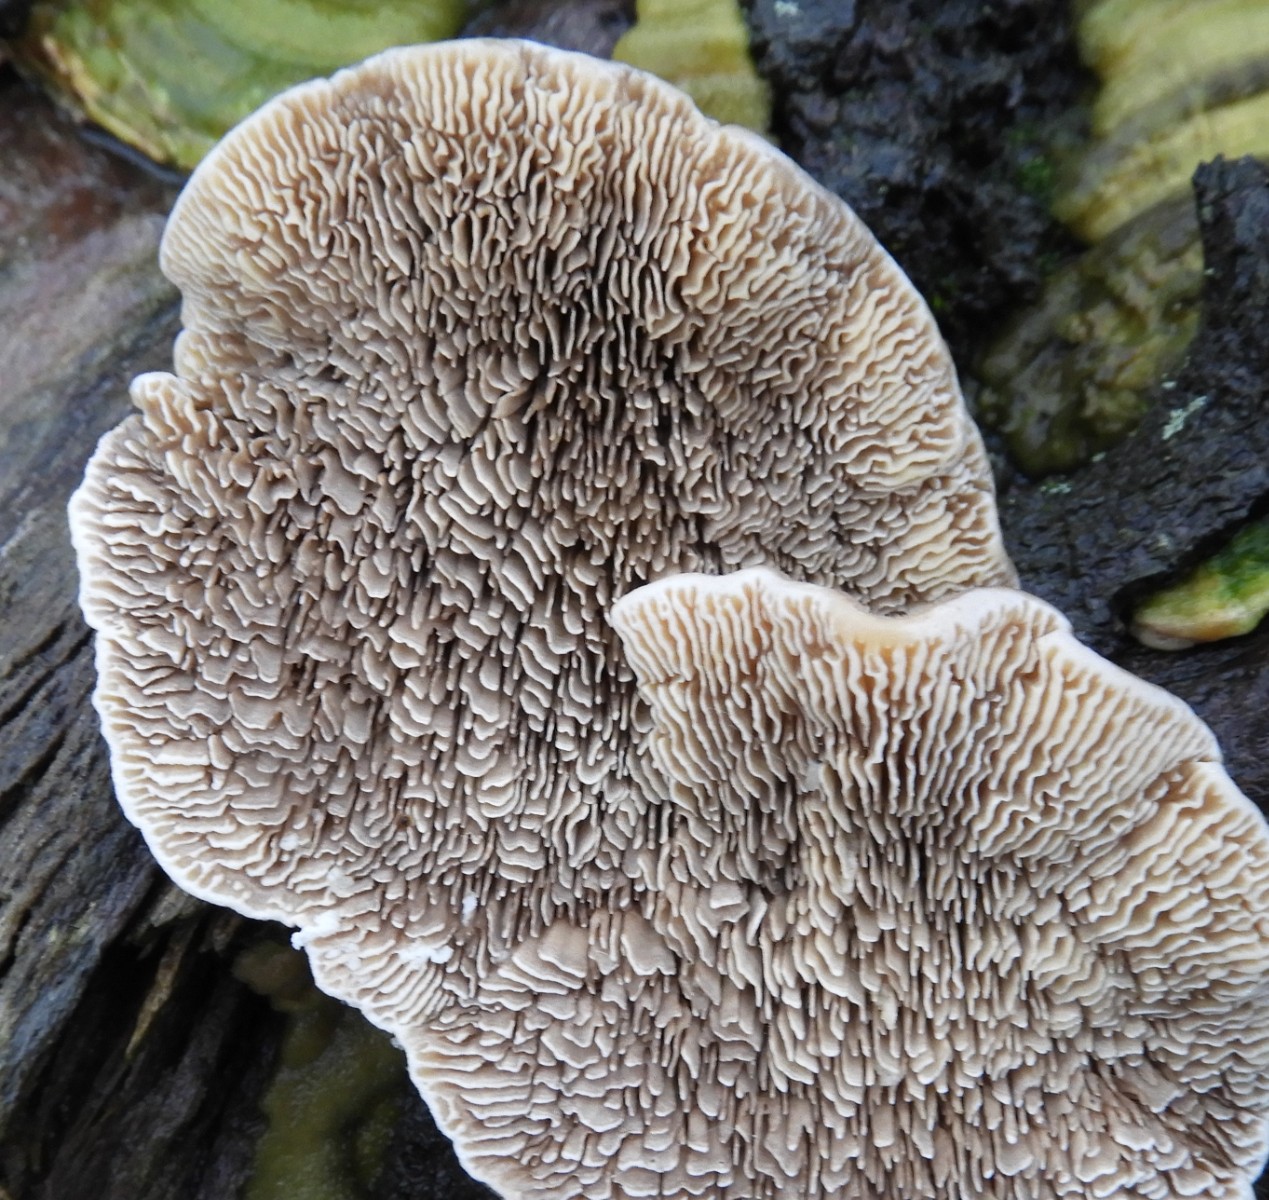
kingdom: Fungi
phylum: Basidiomycota
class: Agaricomycetes
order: Polyporales
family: Polyporaceae
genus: Lenzites
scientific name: Lenzites betulinus
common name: birke-læderporesvamp
